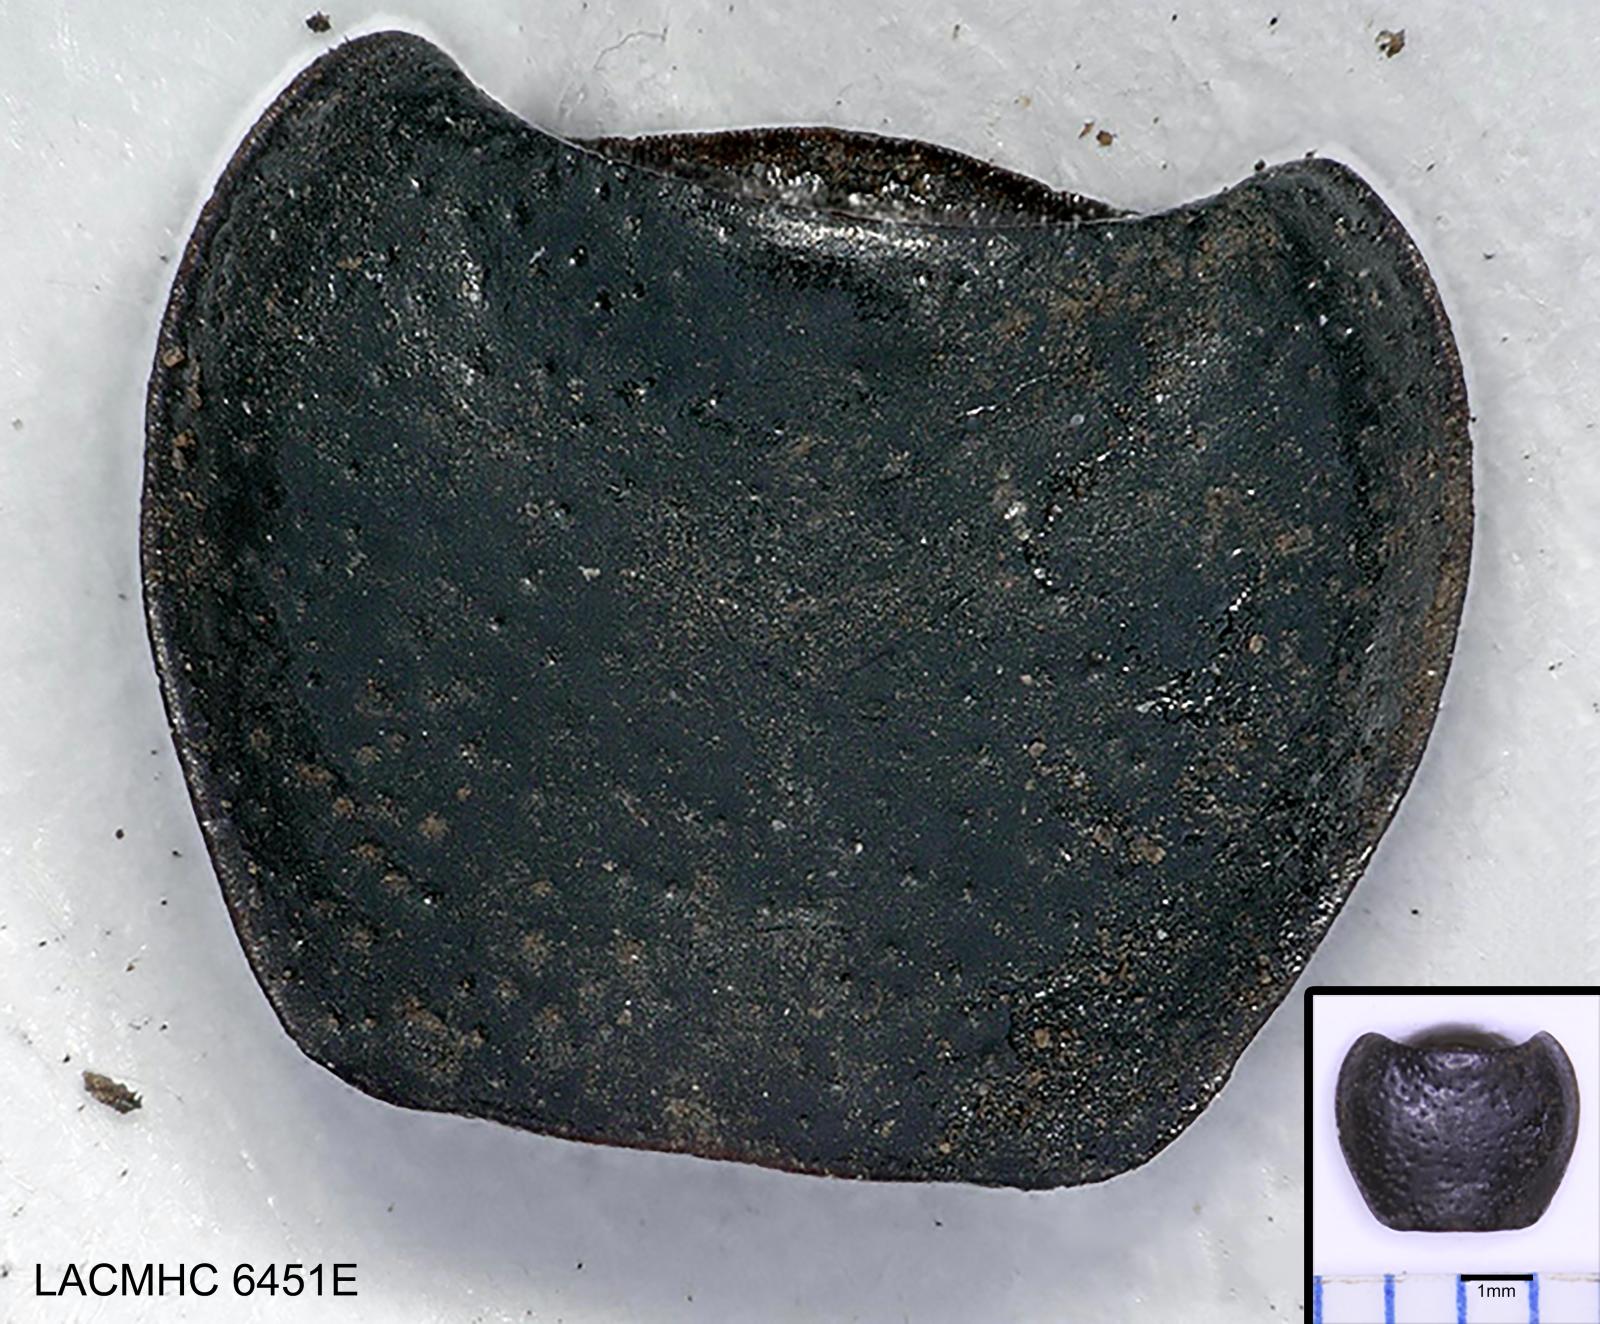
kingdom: Animalia
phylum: Arthropoda
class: Insecta
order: Coleoptera
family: Carabidae
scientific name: Carabidae
